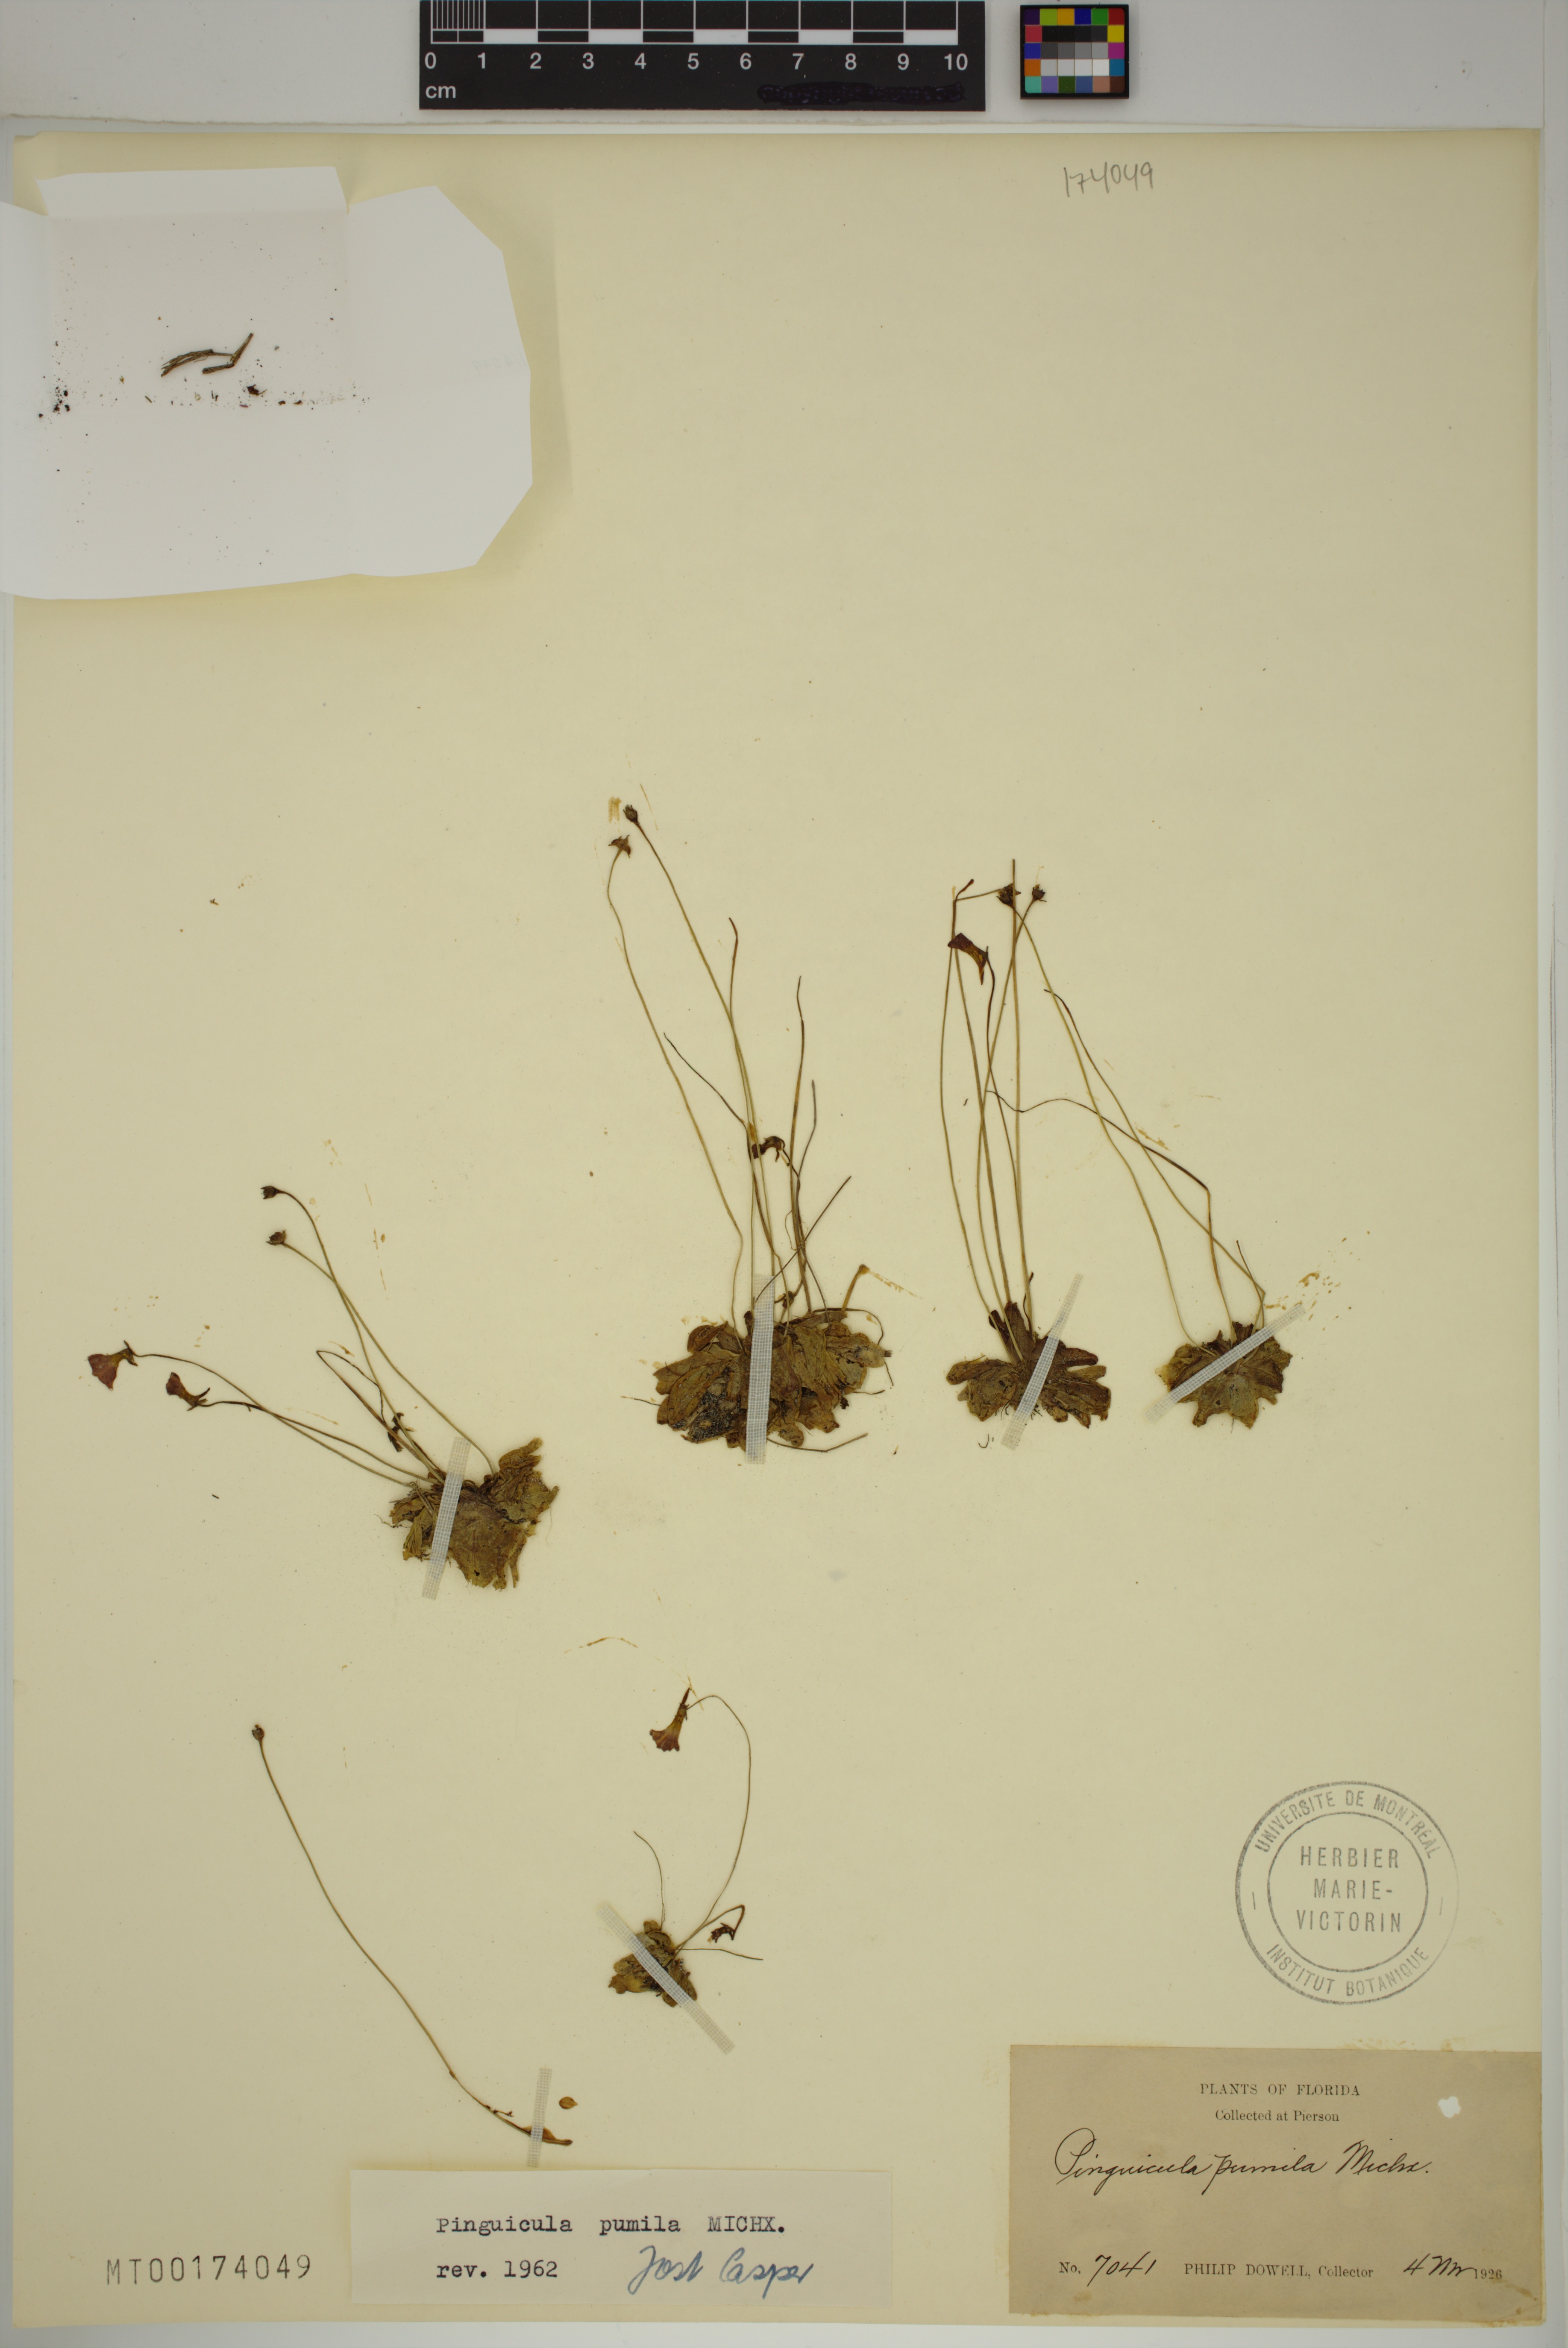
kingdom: Plantae
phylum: Tracheophyta
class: Magnoliopsida
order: Lamiales
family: Lentibulariaceae
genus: Pinguicula
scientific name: Pinguicula pumila
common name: Small butterwort
